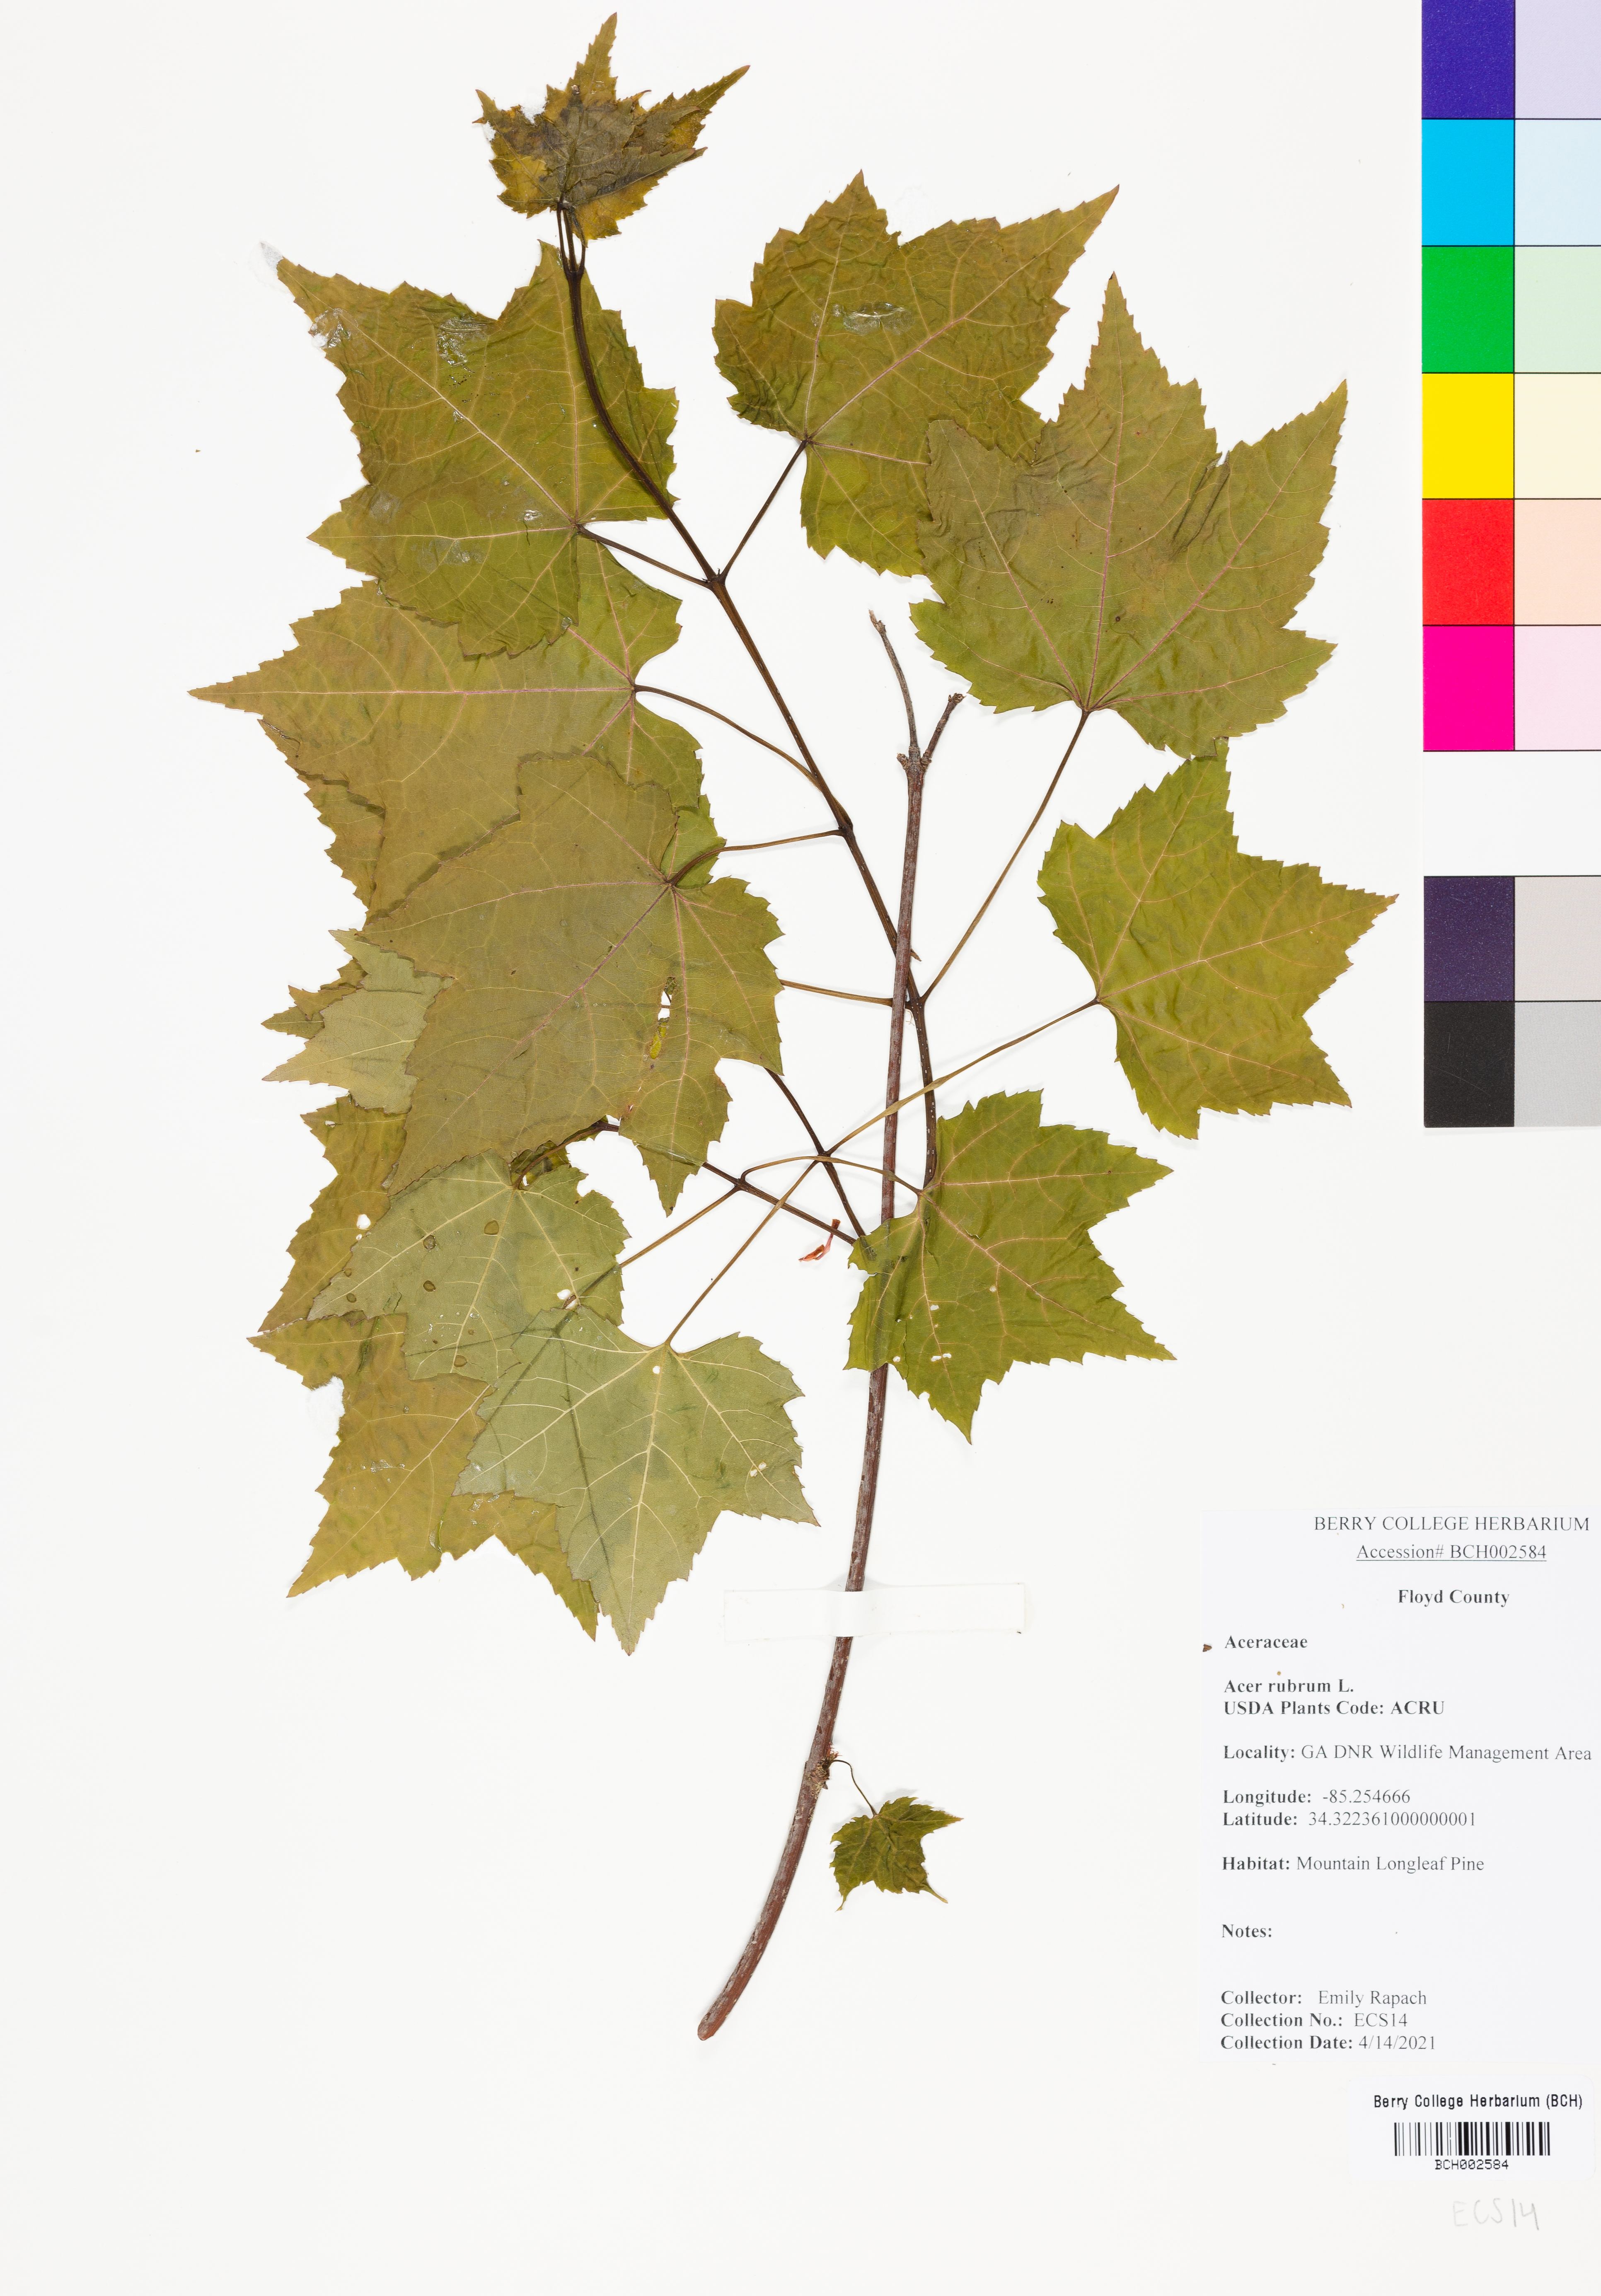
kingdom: Plantae
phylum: Tracheophyta
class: Magnoliopsida
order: Sapindales
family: Sapindaceae
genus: Acer
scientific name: Acer rubrum
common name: Red maple
